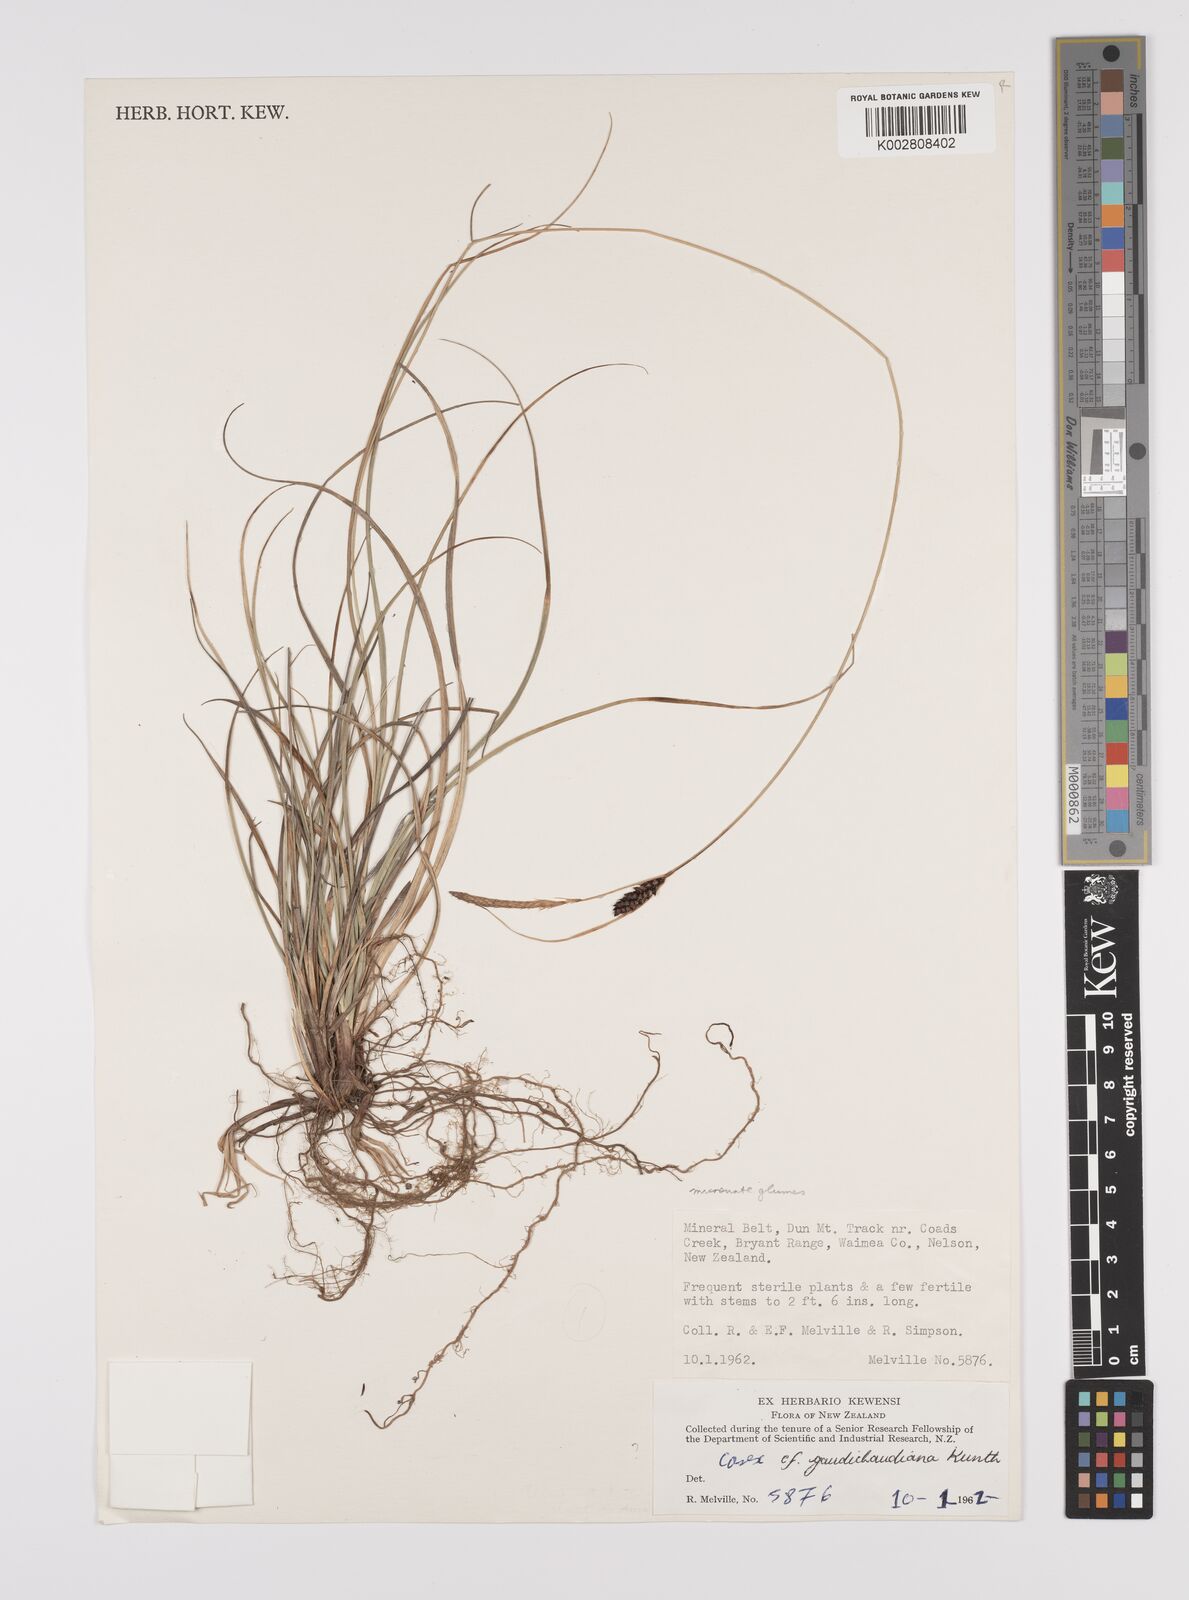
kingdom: Plantae
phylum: Tracheophyta
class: Liliopsida
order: Poales
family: Cyperaceae
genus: Carex
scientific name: Carex gaudichaudiana
